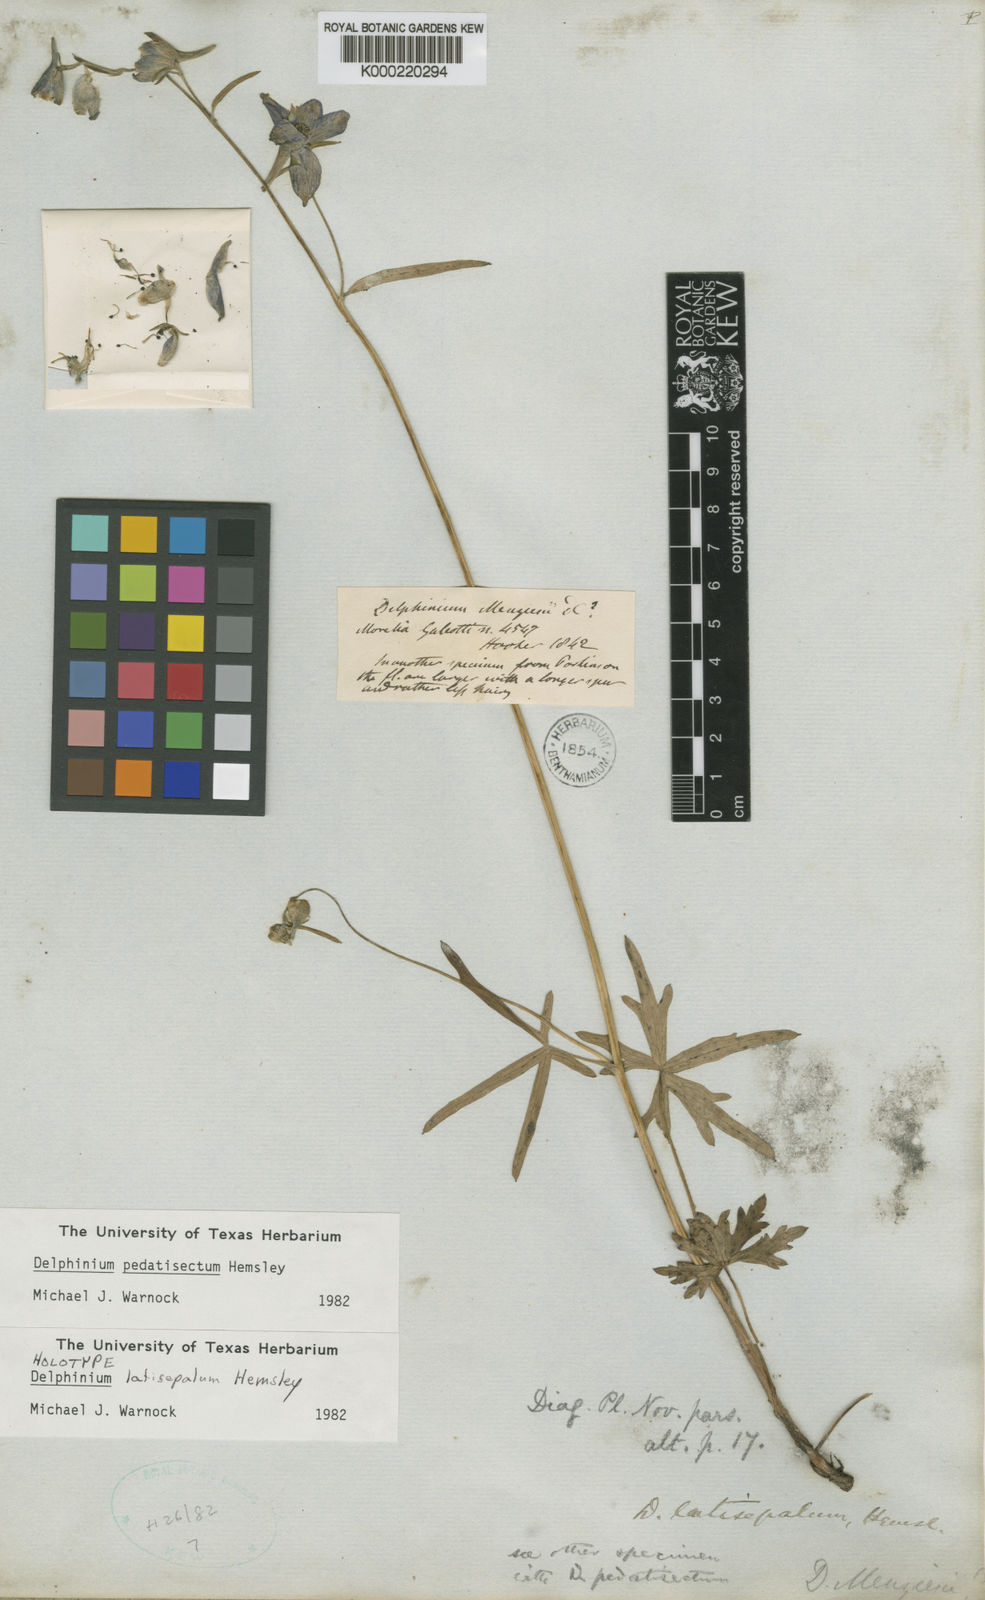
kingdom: Plantae
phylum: Tracheophyta
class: Magnoliopsida
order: Ranunculales
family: Ranunculaceae
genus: Delphinium
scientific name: Delphinium pedatisectum
